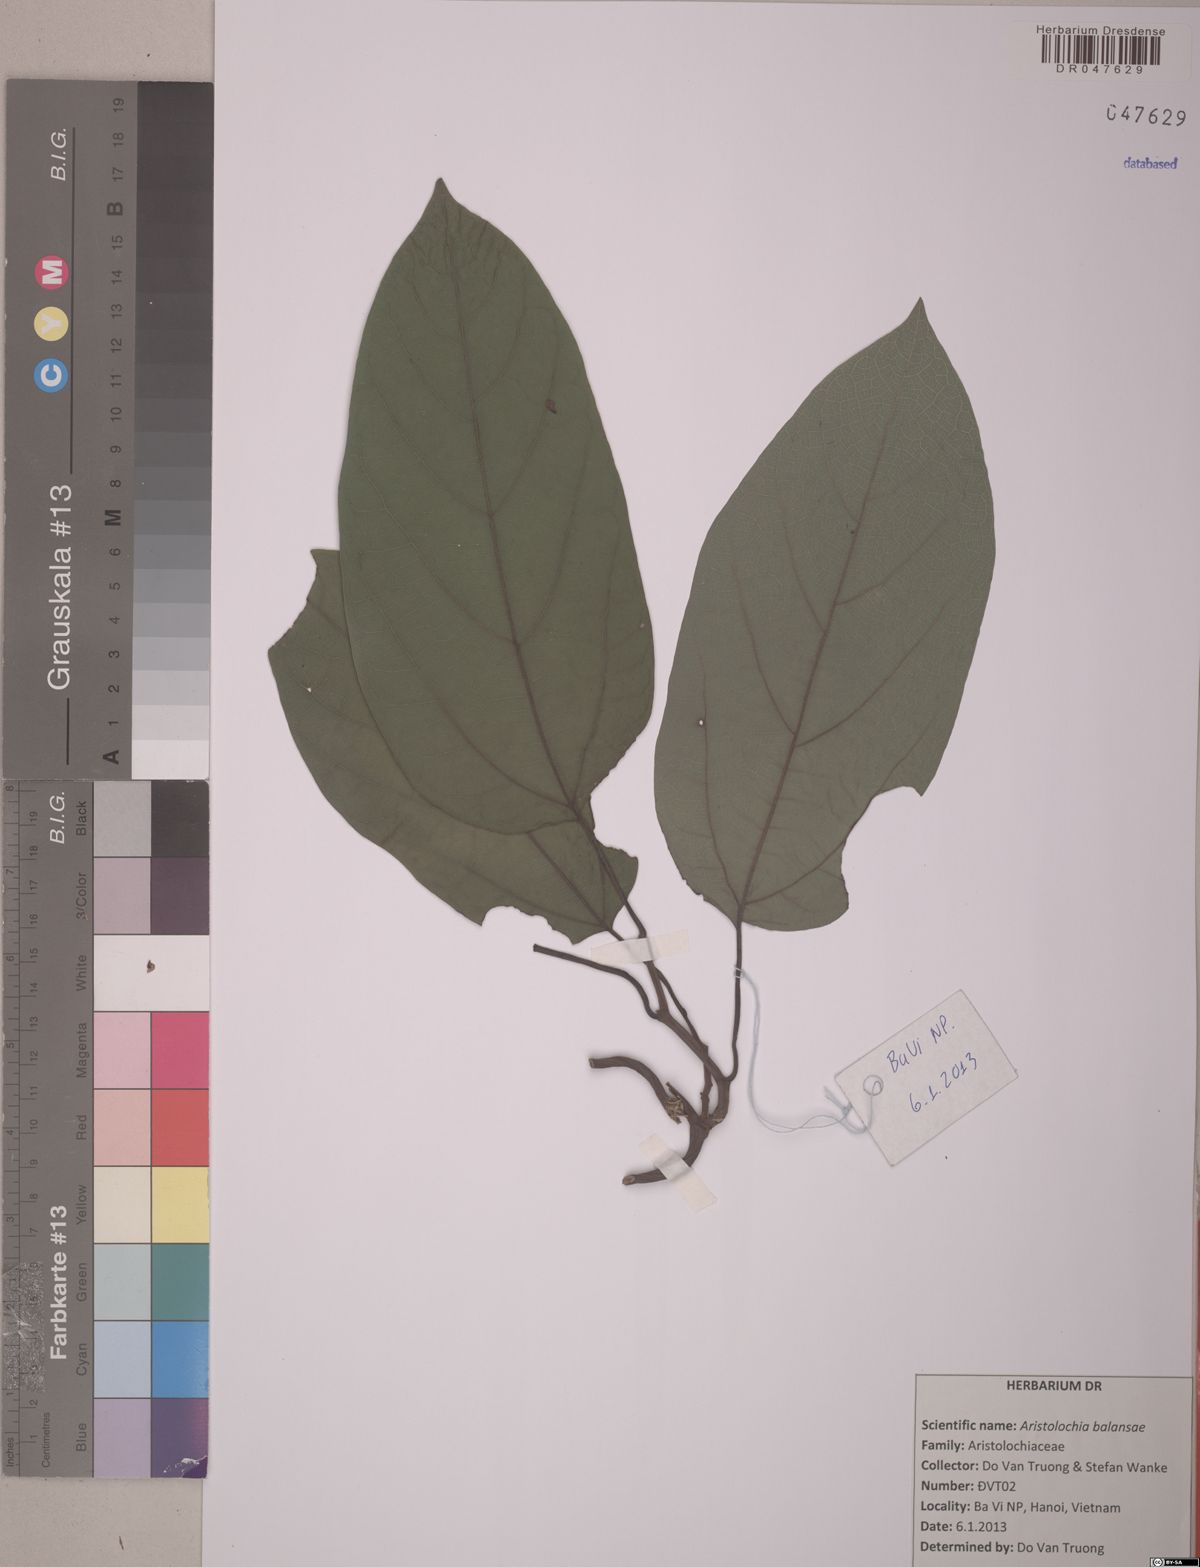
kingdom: Plantae
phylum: Tracheophyta
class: Magnoliopsida
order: Piperales
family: Aristolochiaceae
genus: Isotrema
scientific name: Isotrema balansae
